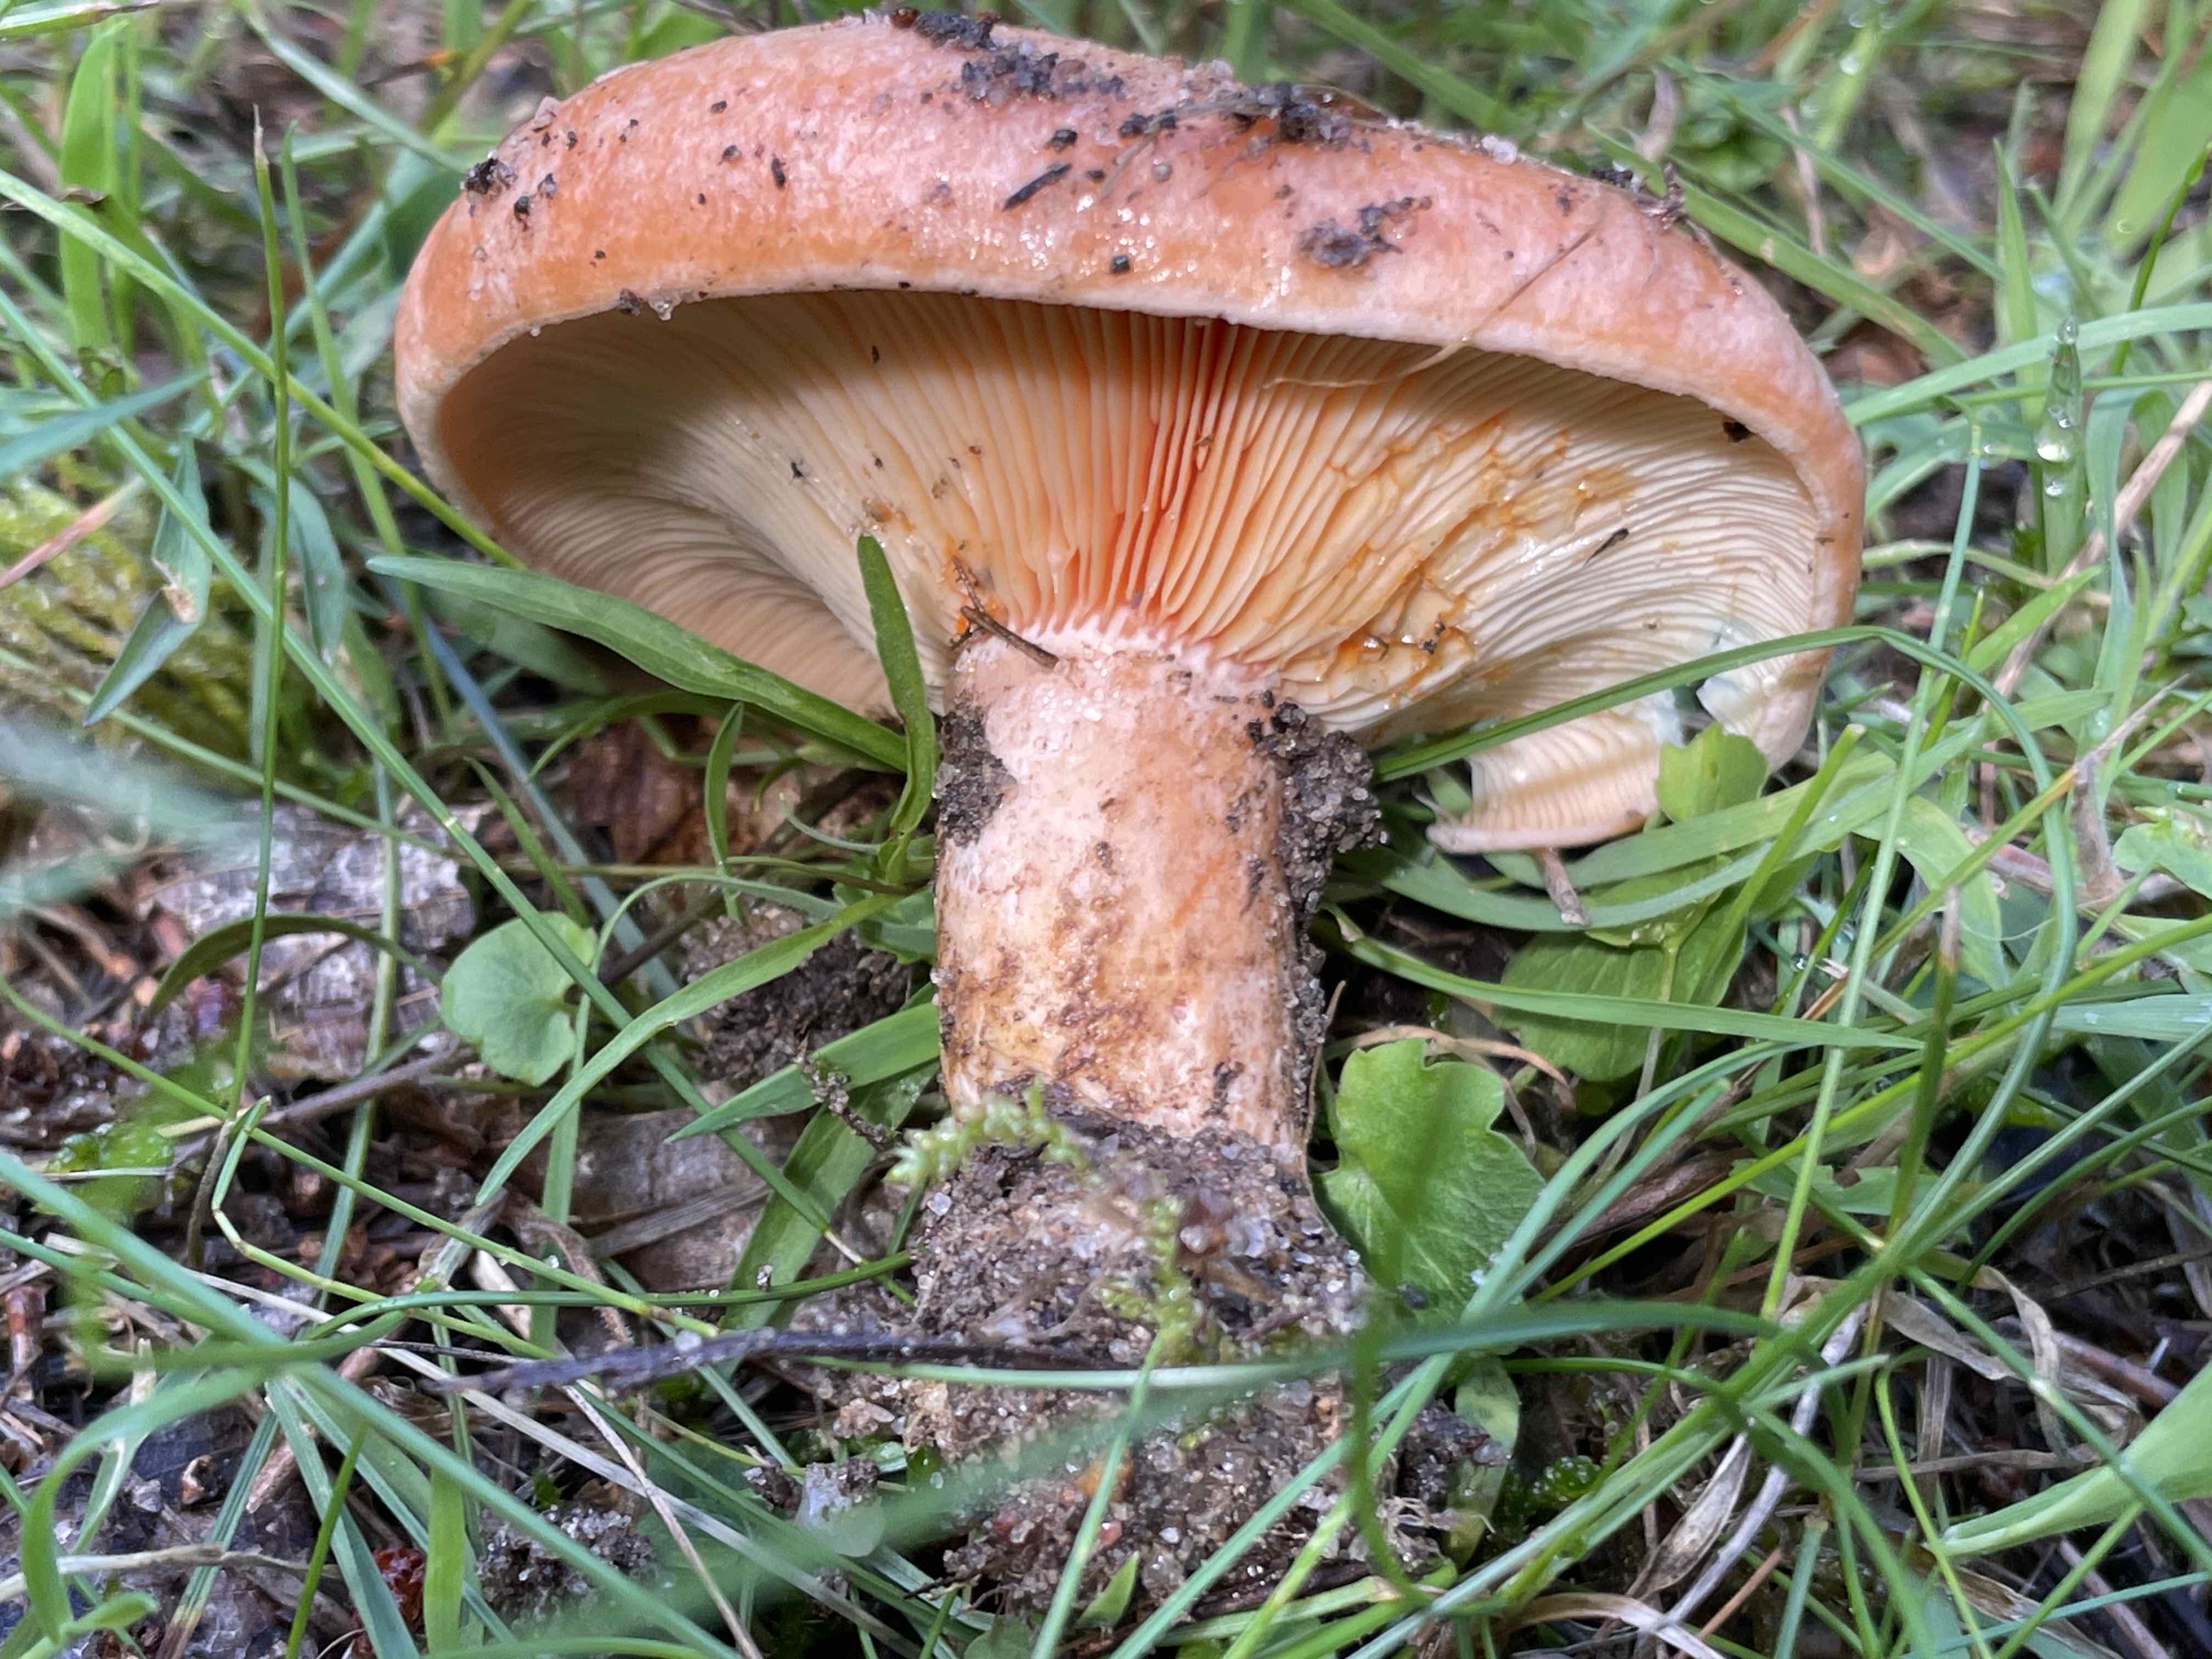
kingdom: Fungi
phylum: Basidiomycota
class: Agaricomycetes
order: Russulales
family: Russulaceae
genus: Lactarius
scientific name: Lactarius deliciosus
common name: velsmagende mælkehat
